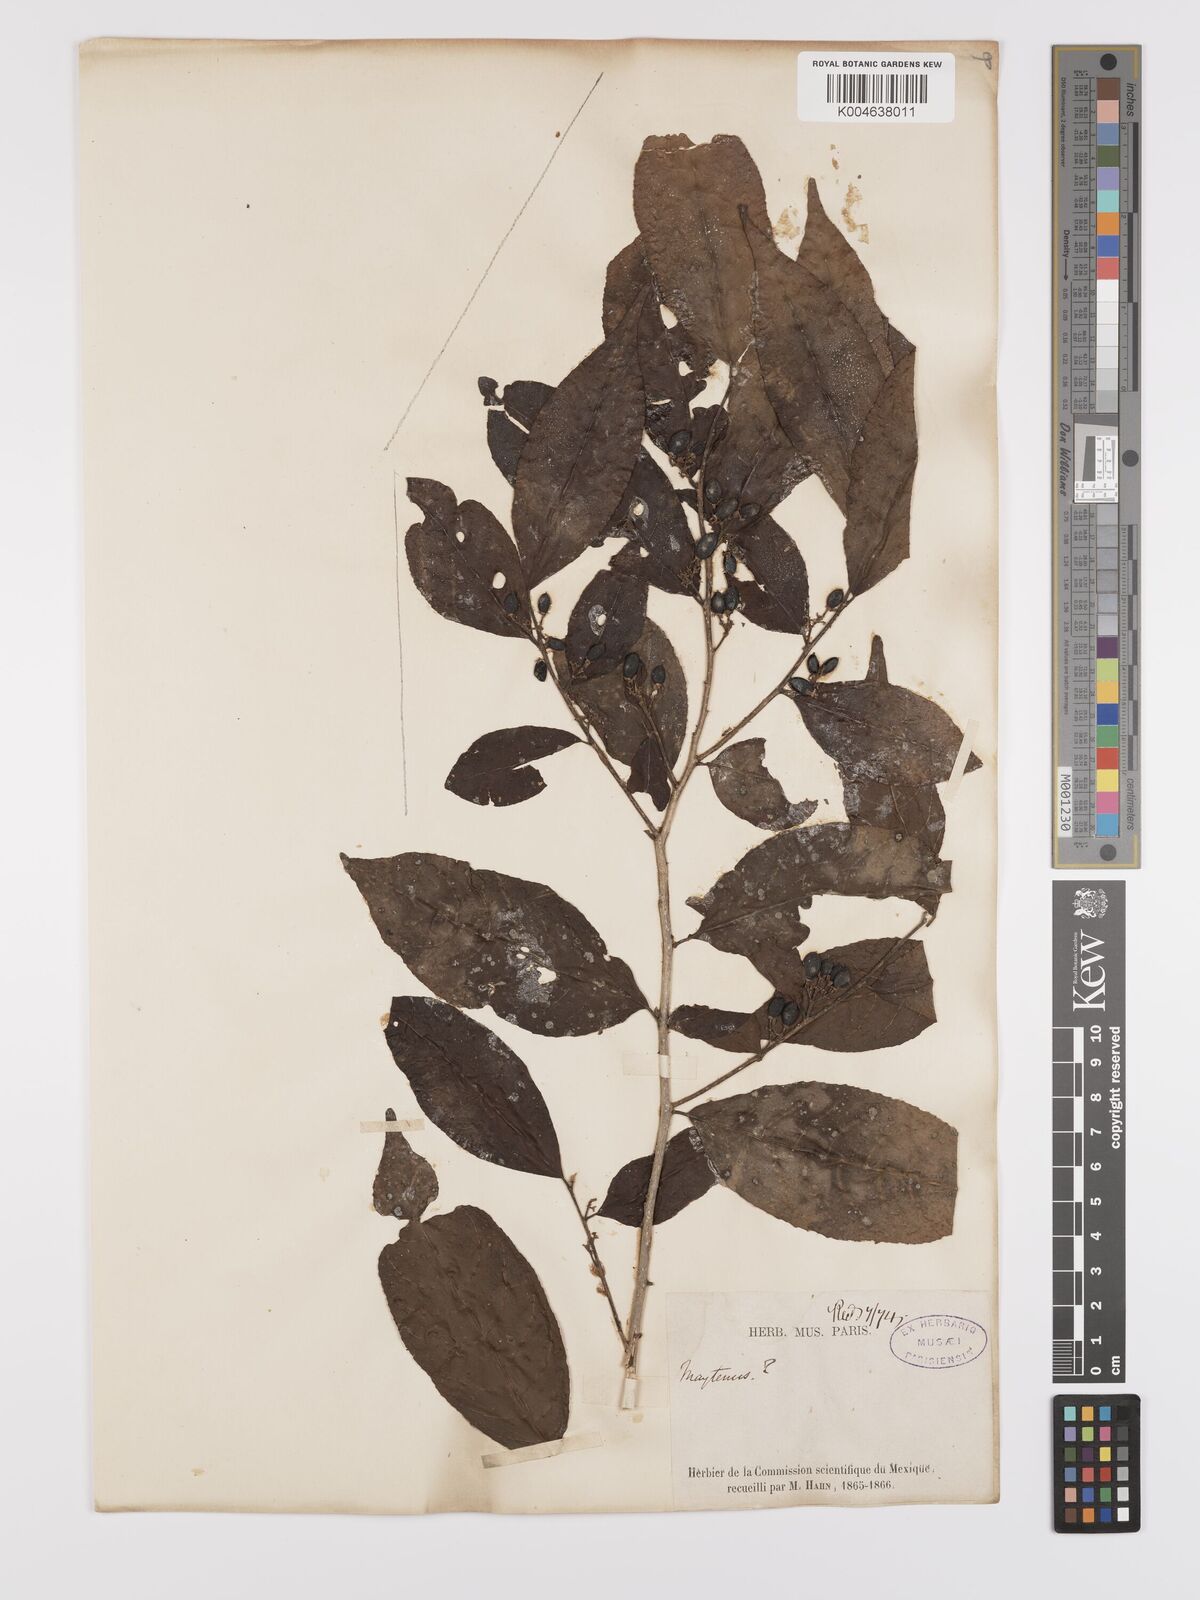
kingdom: Plantae
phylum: Tracheophyta
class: Magnoliopsida
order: Celastrales
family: Celastraceae
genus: Maytenus
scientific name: Maytenus
